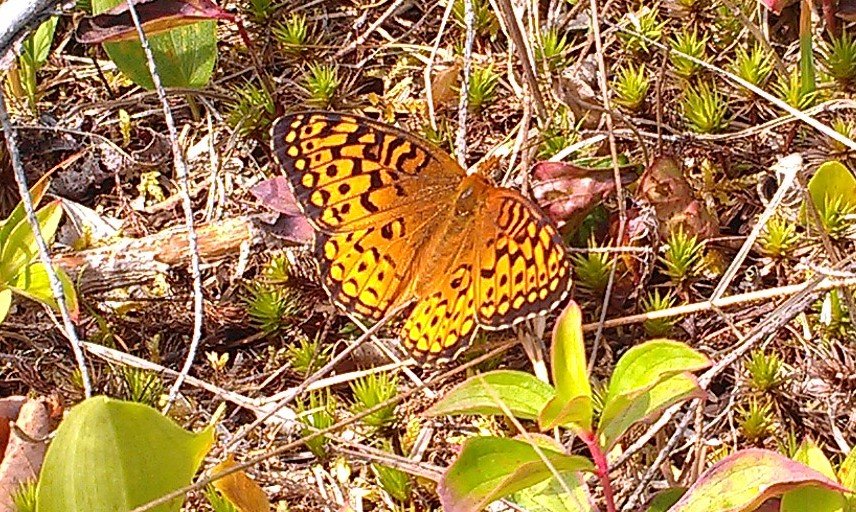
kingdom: Animalia
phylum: Arthropoda
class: Insecta
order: Lepidoptera
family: Nymphalidae
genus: Speyeria
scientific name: Speyeria atlantis
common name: Atlantis Fritillary
